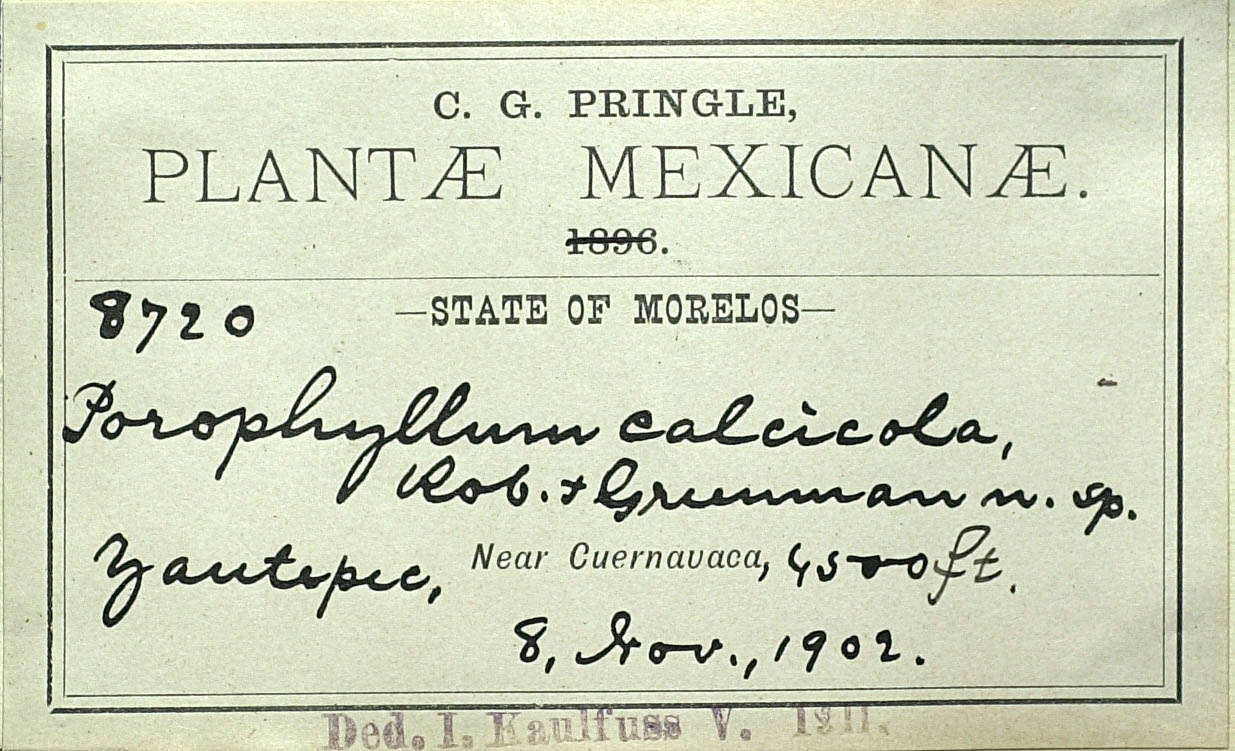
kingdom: Plantae
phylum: Tracheophyta
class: Magnoliopsida
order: Asterales
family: Asteraceae
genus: Porophyllum
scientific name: Porophyllum calcicola
